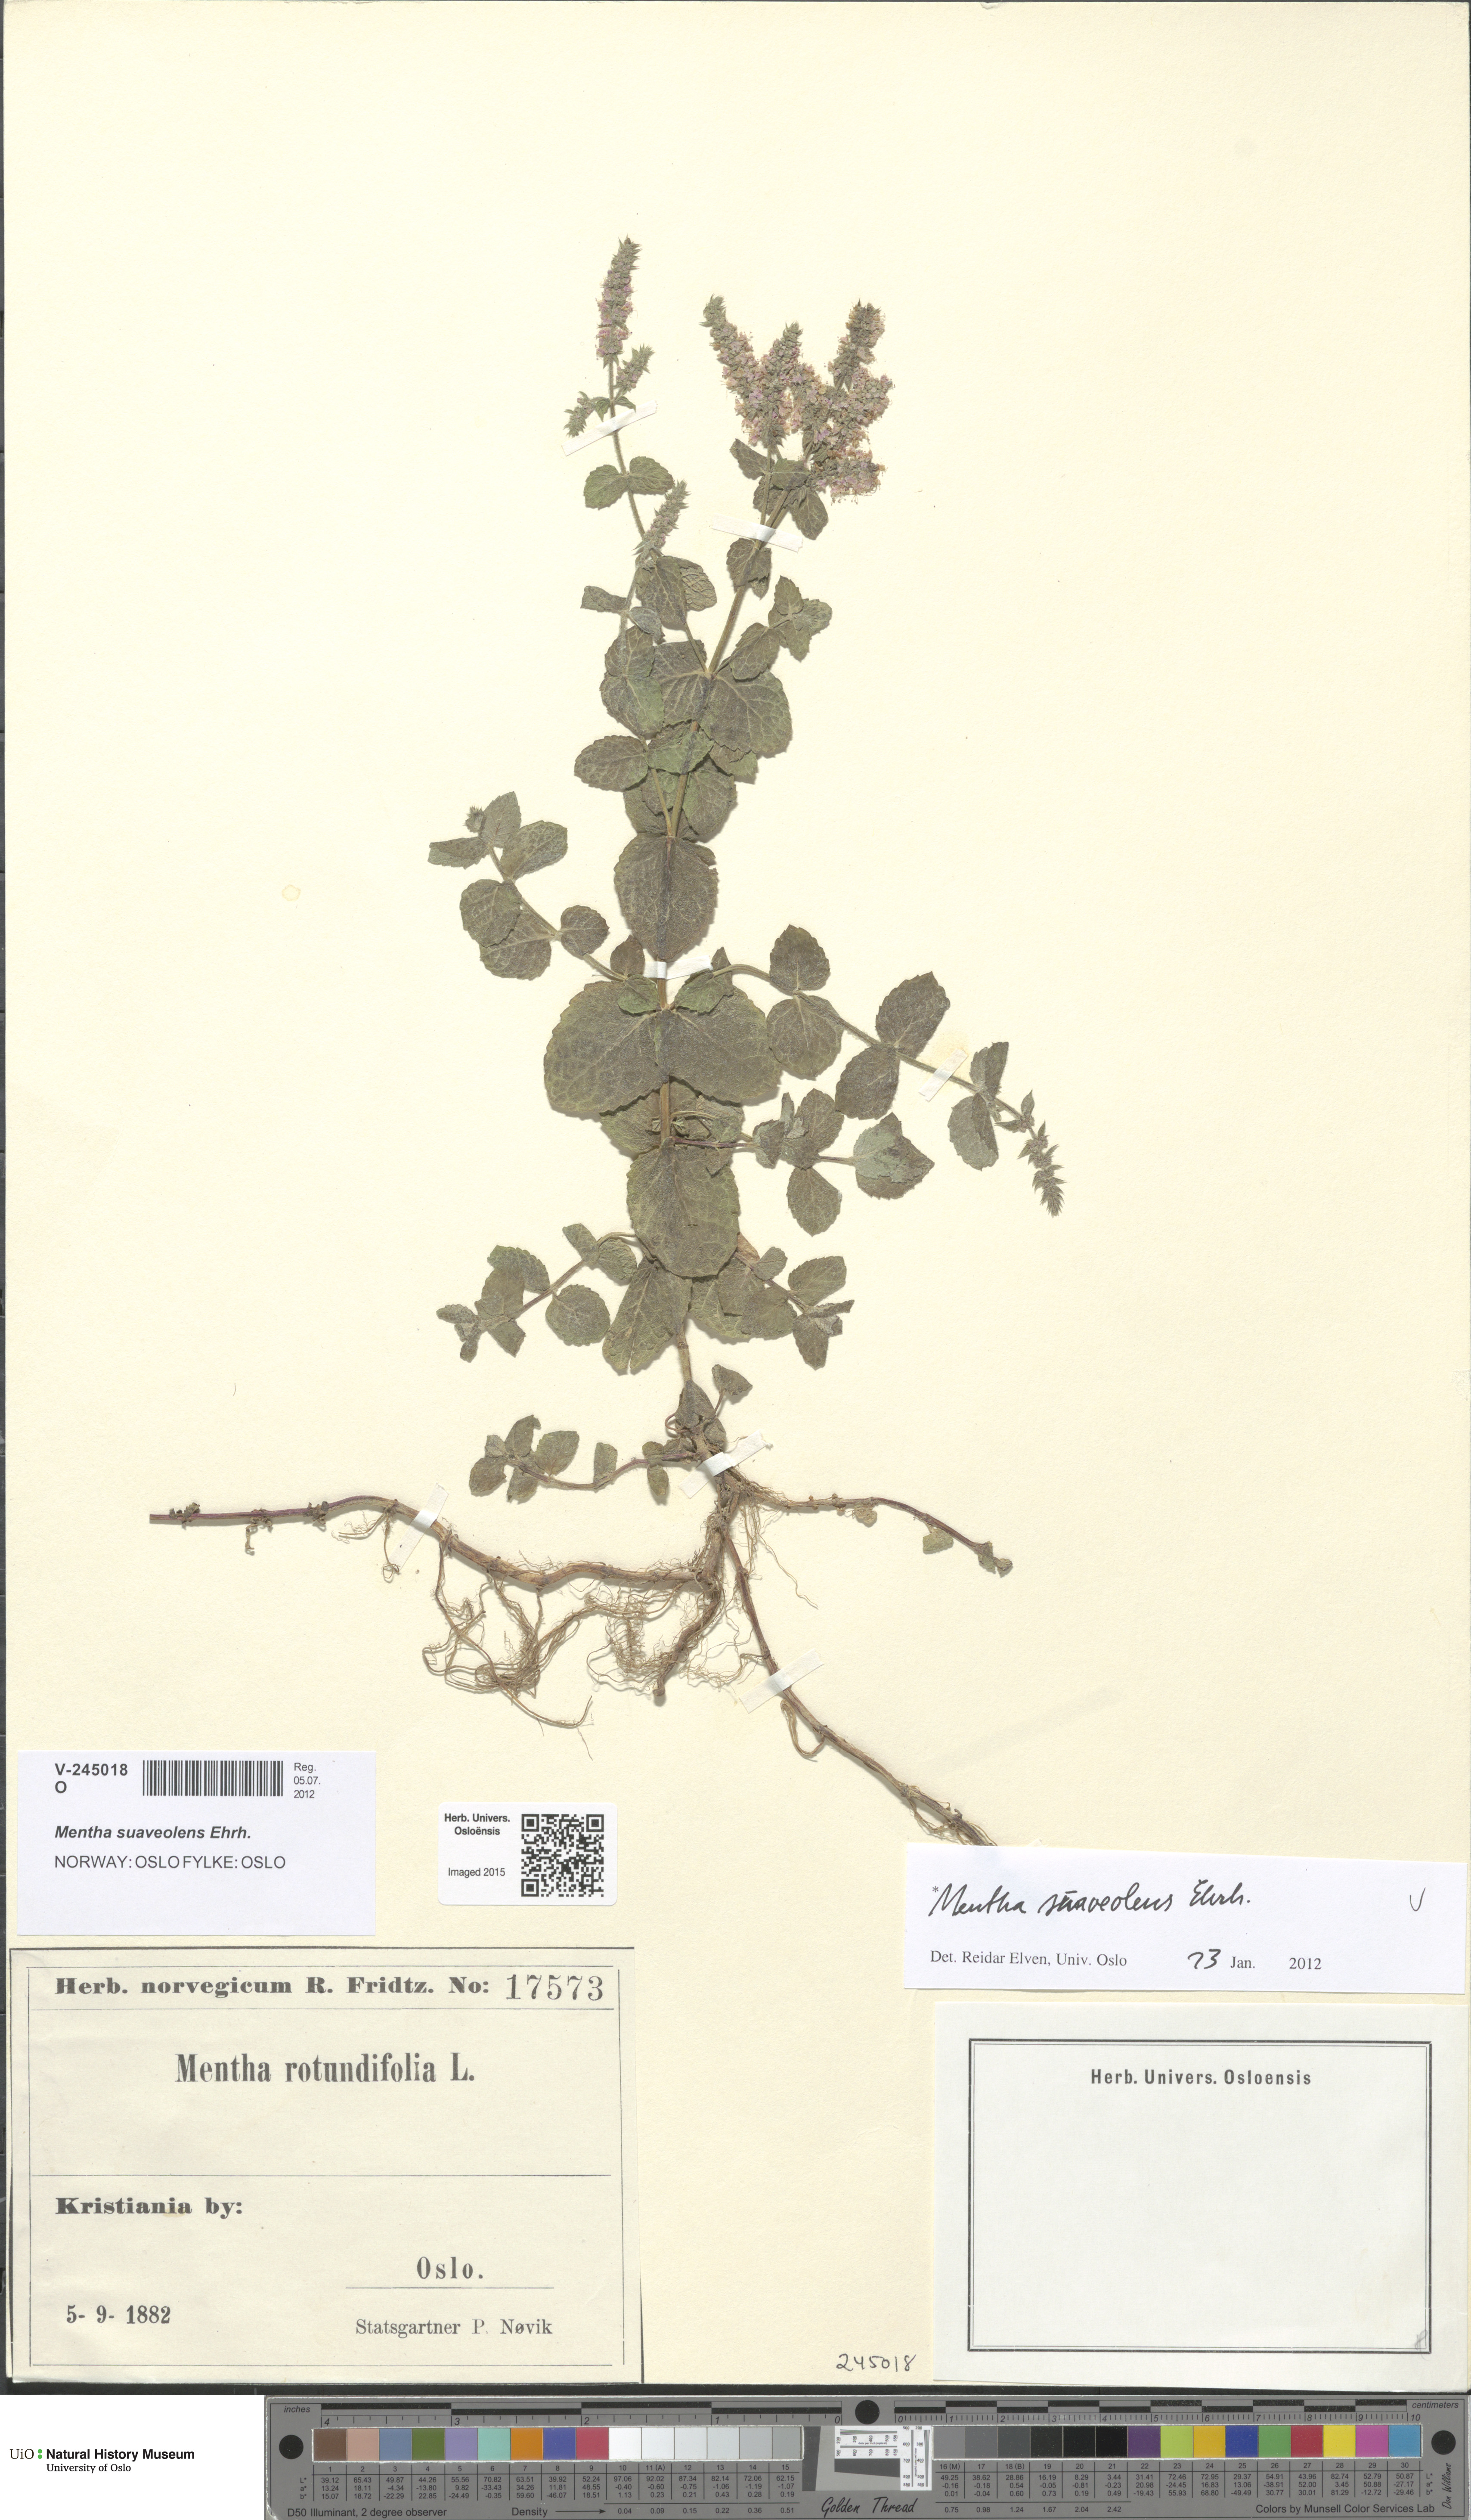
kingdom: Plantae
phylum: Tracheophyta
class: Magnoliopsida
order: Lamiales
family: Lamiaceae
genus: Mentha
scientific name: Mentha suaveolens
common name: Apple mint
